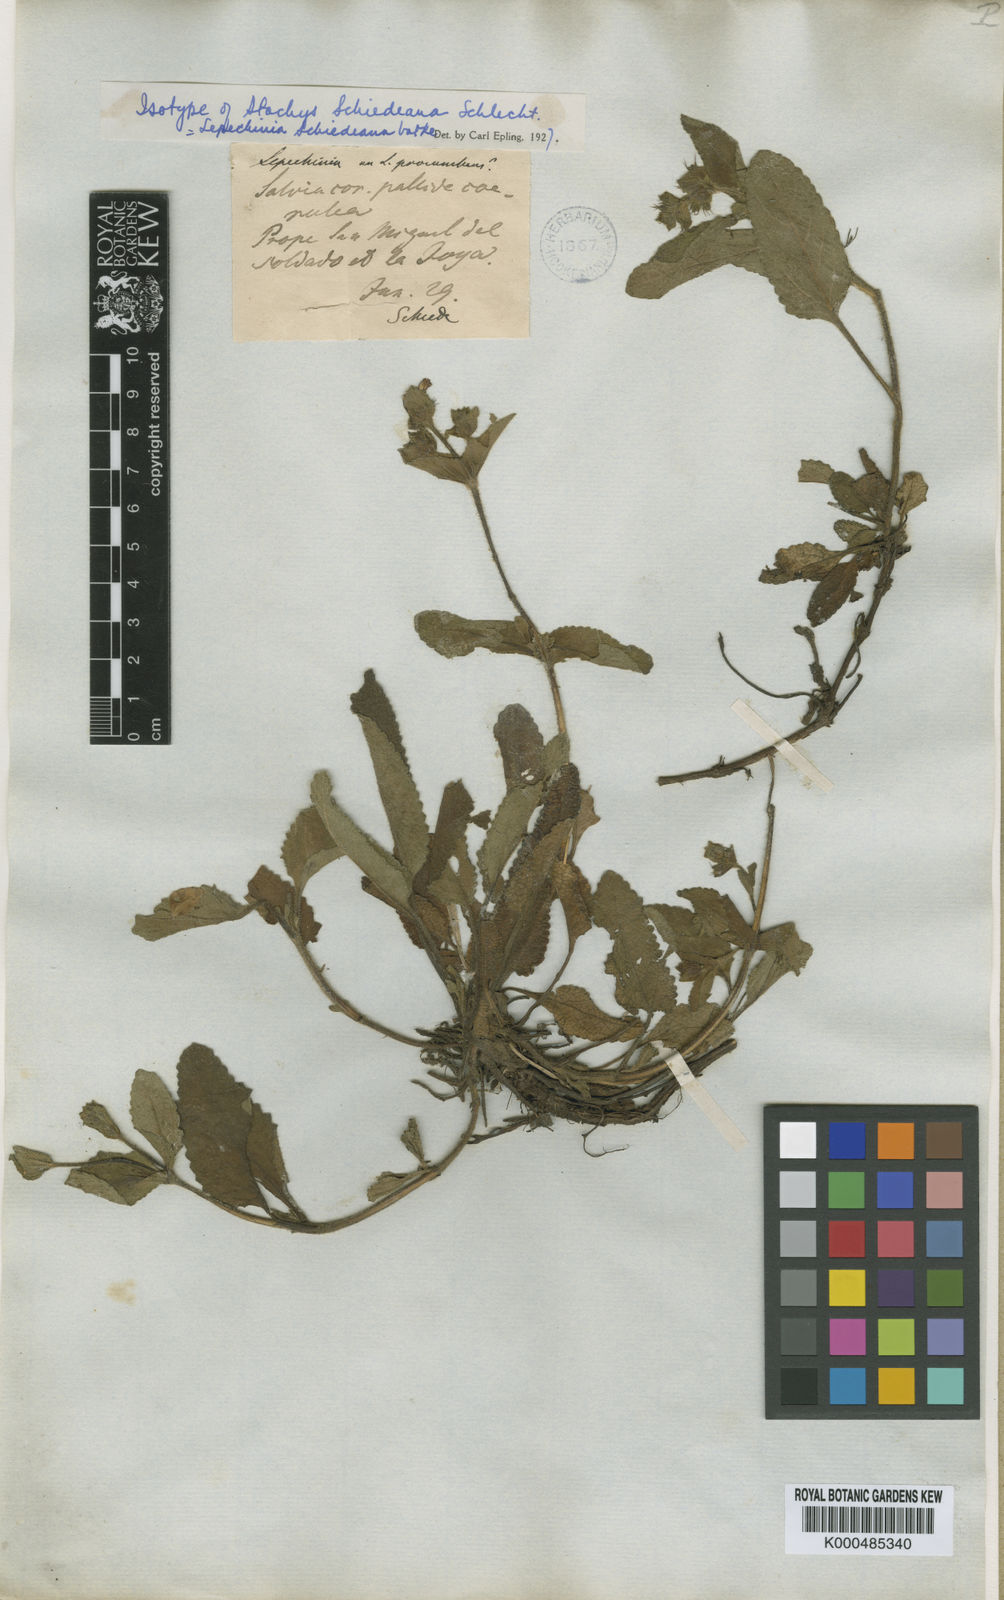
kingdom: Plantae
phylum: Tracheophyta
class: Magnoliopsida
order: Lamiales
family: Lamiaceae
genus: Lepechinia
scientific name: Lepechinia schiedeana
